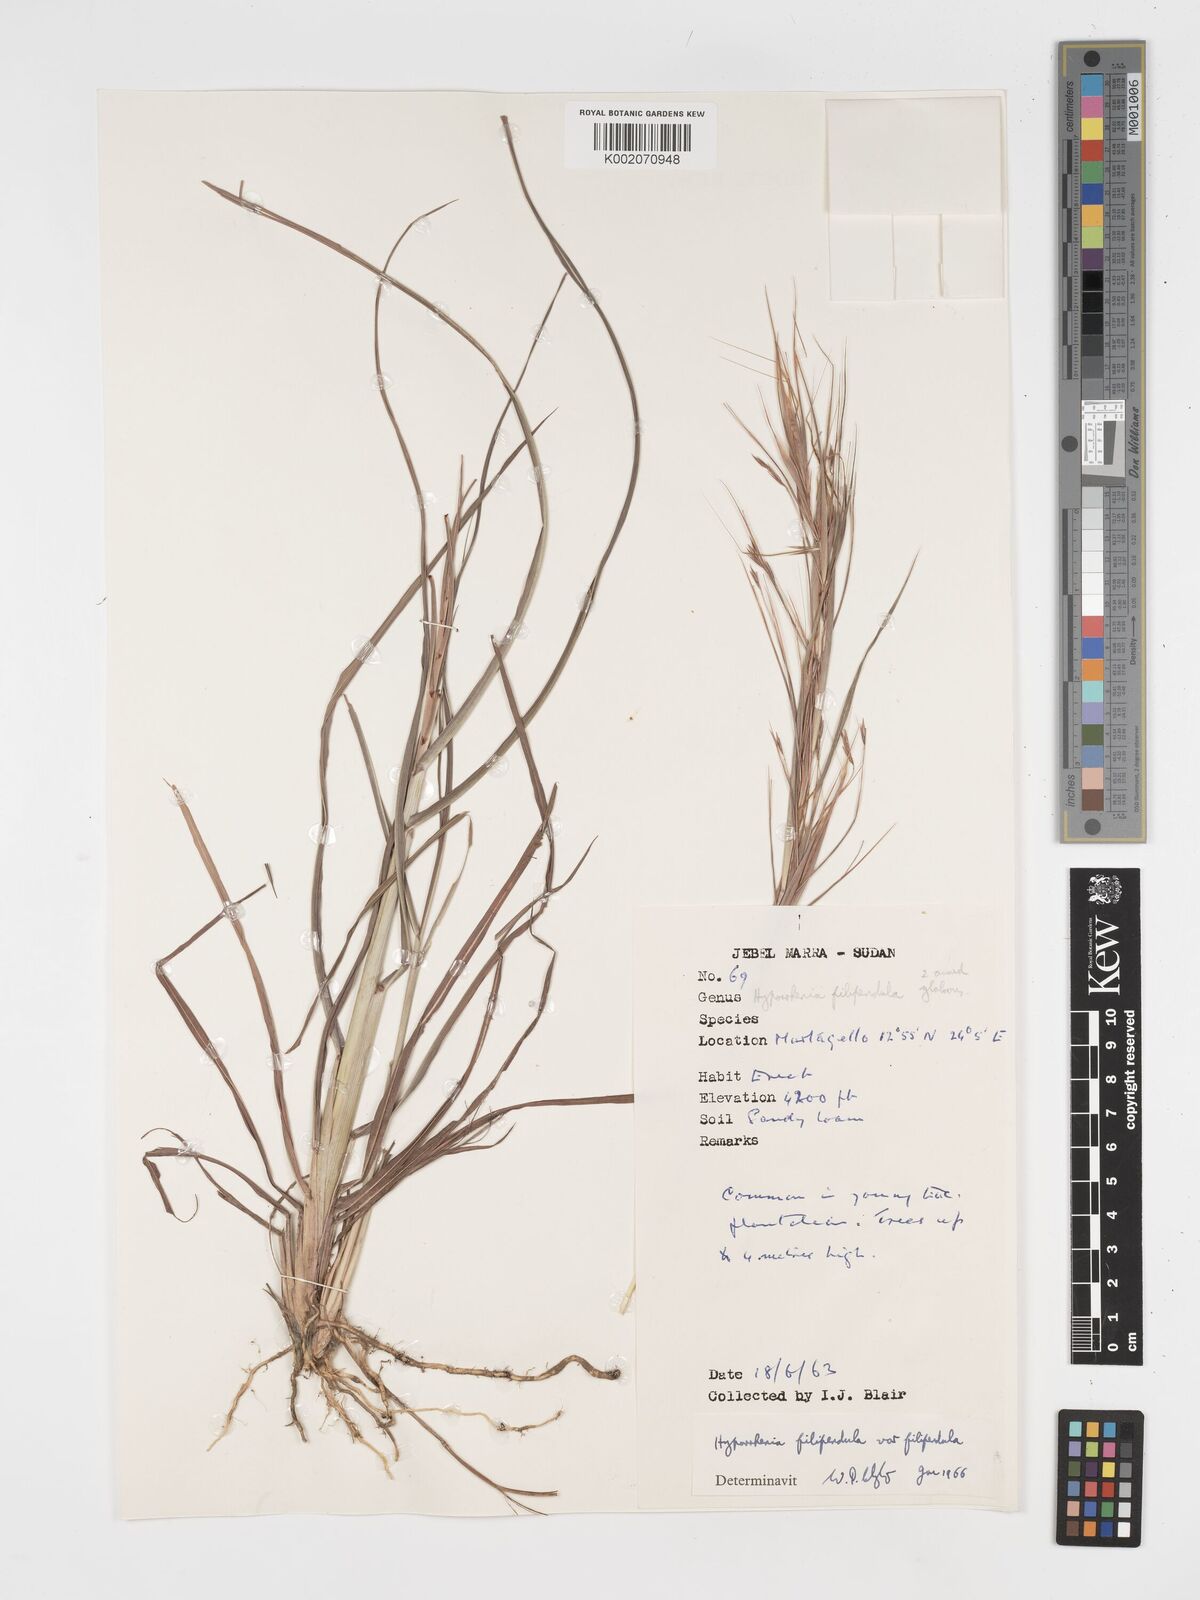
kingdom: Plantae
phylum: Tracheophyta
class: Liliopsida
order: Poales
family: Poaceae
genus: Hyparrhenia
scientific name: Hyparrhenia filipendula
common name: Tambookie grass
